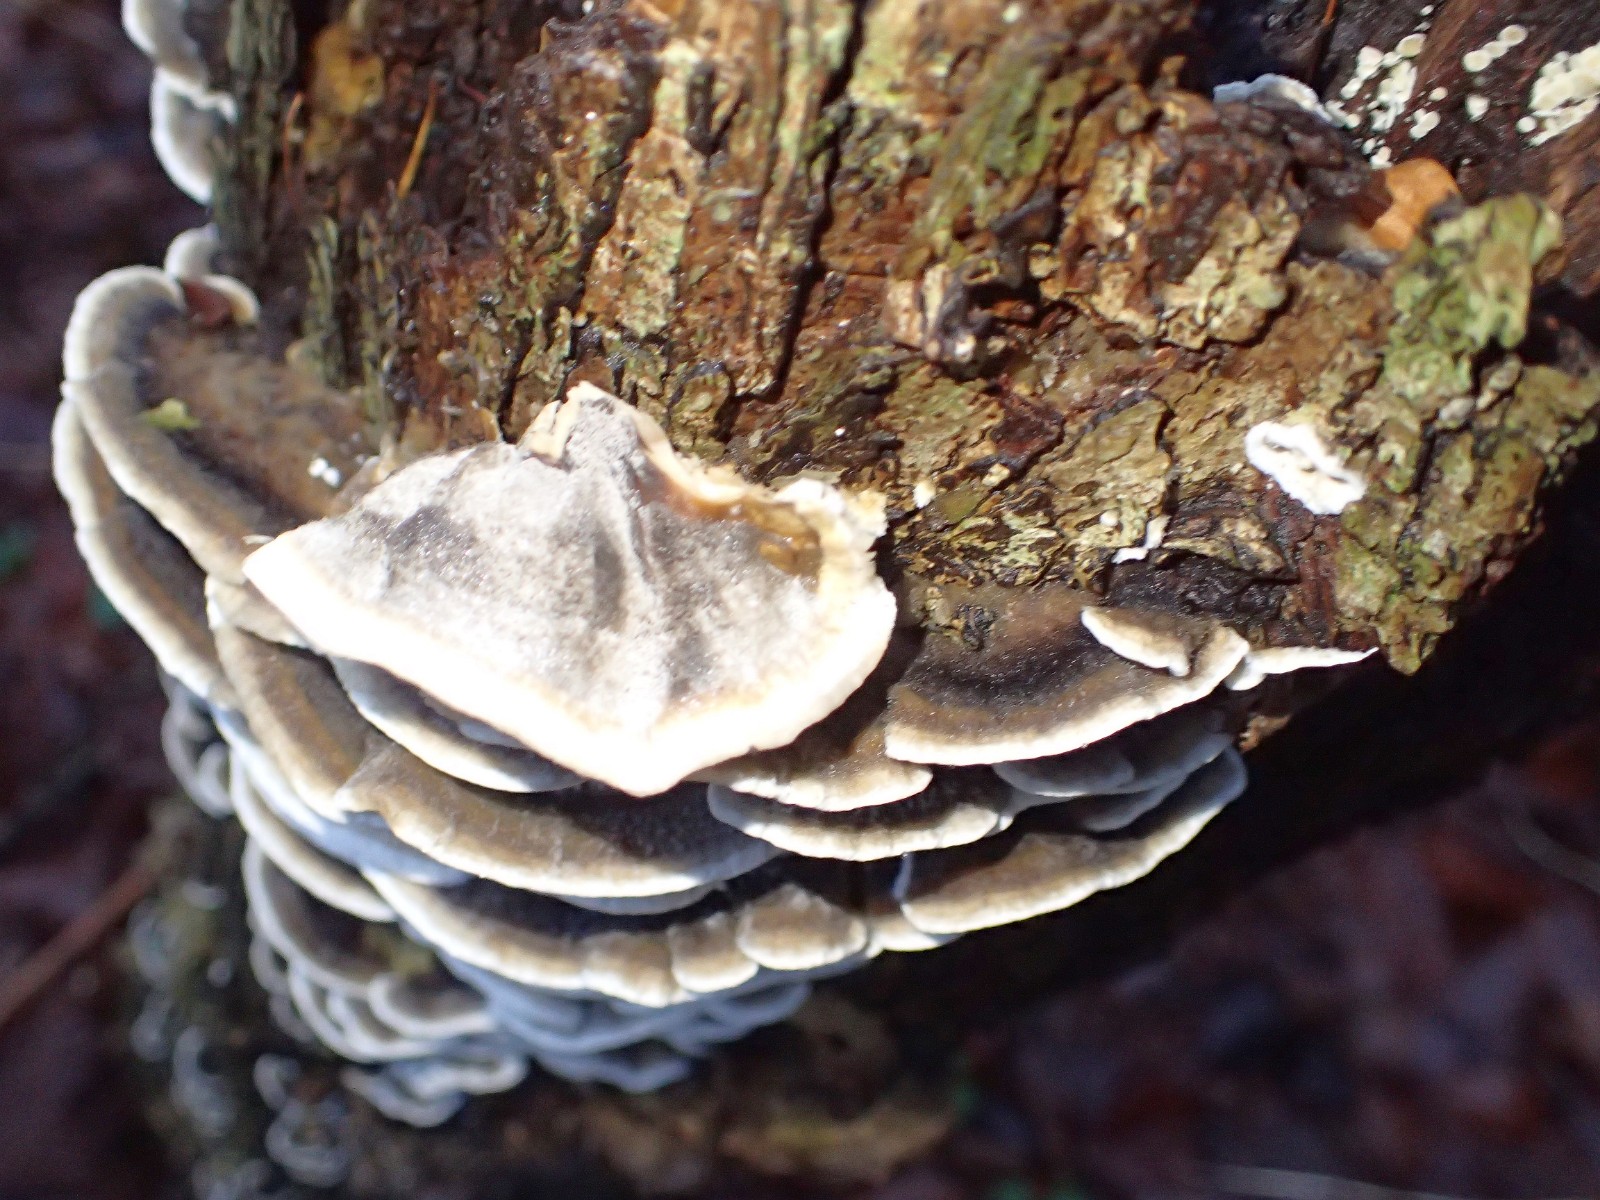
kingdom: Fungi
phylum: Basidiomycota
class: Agaricomycetes
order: Polyporales
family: Phanerochaetaceae
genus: Bjerkandera
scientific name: Bjerkandera adusta
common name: sveden sodporesvamp
